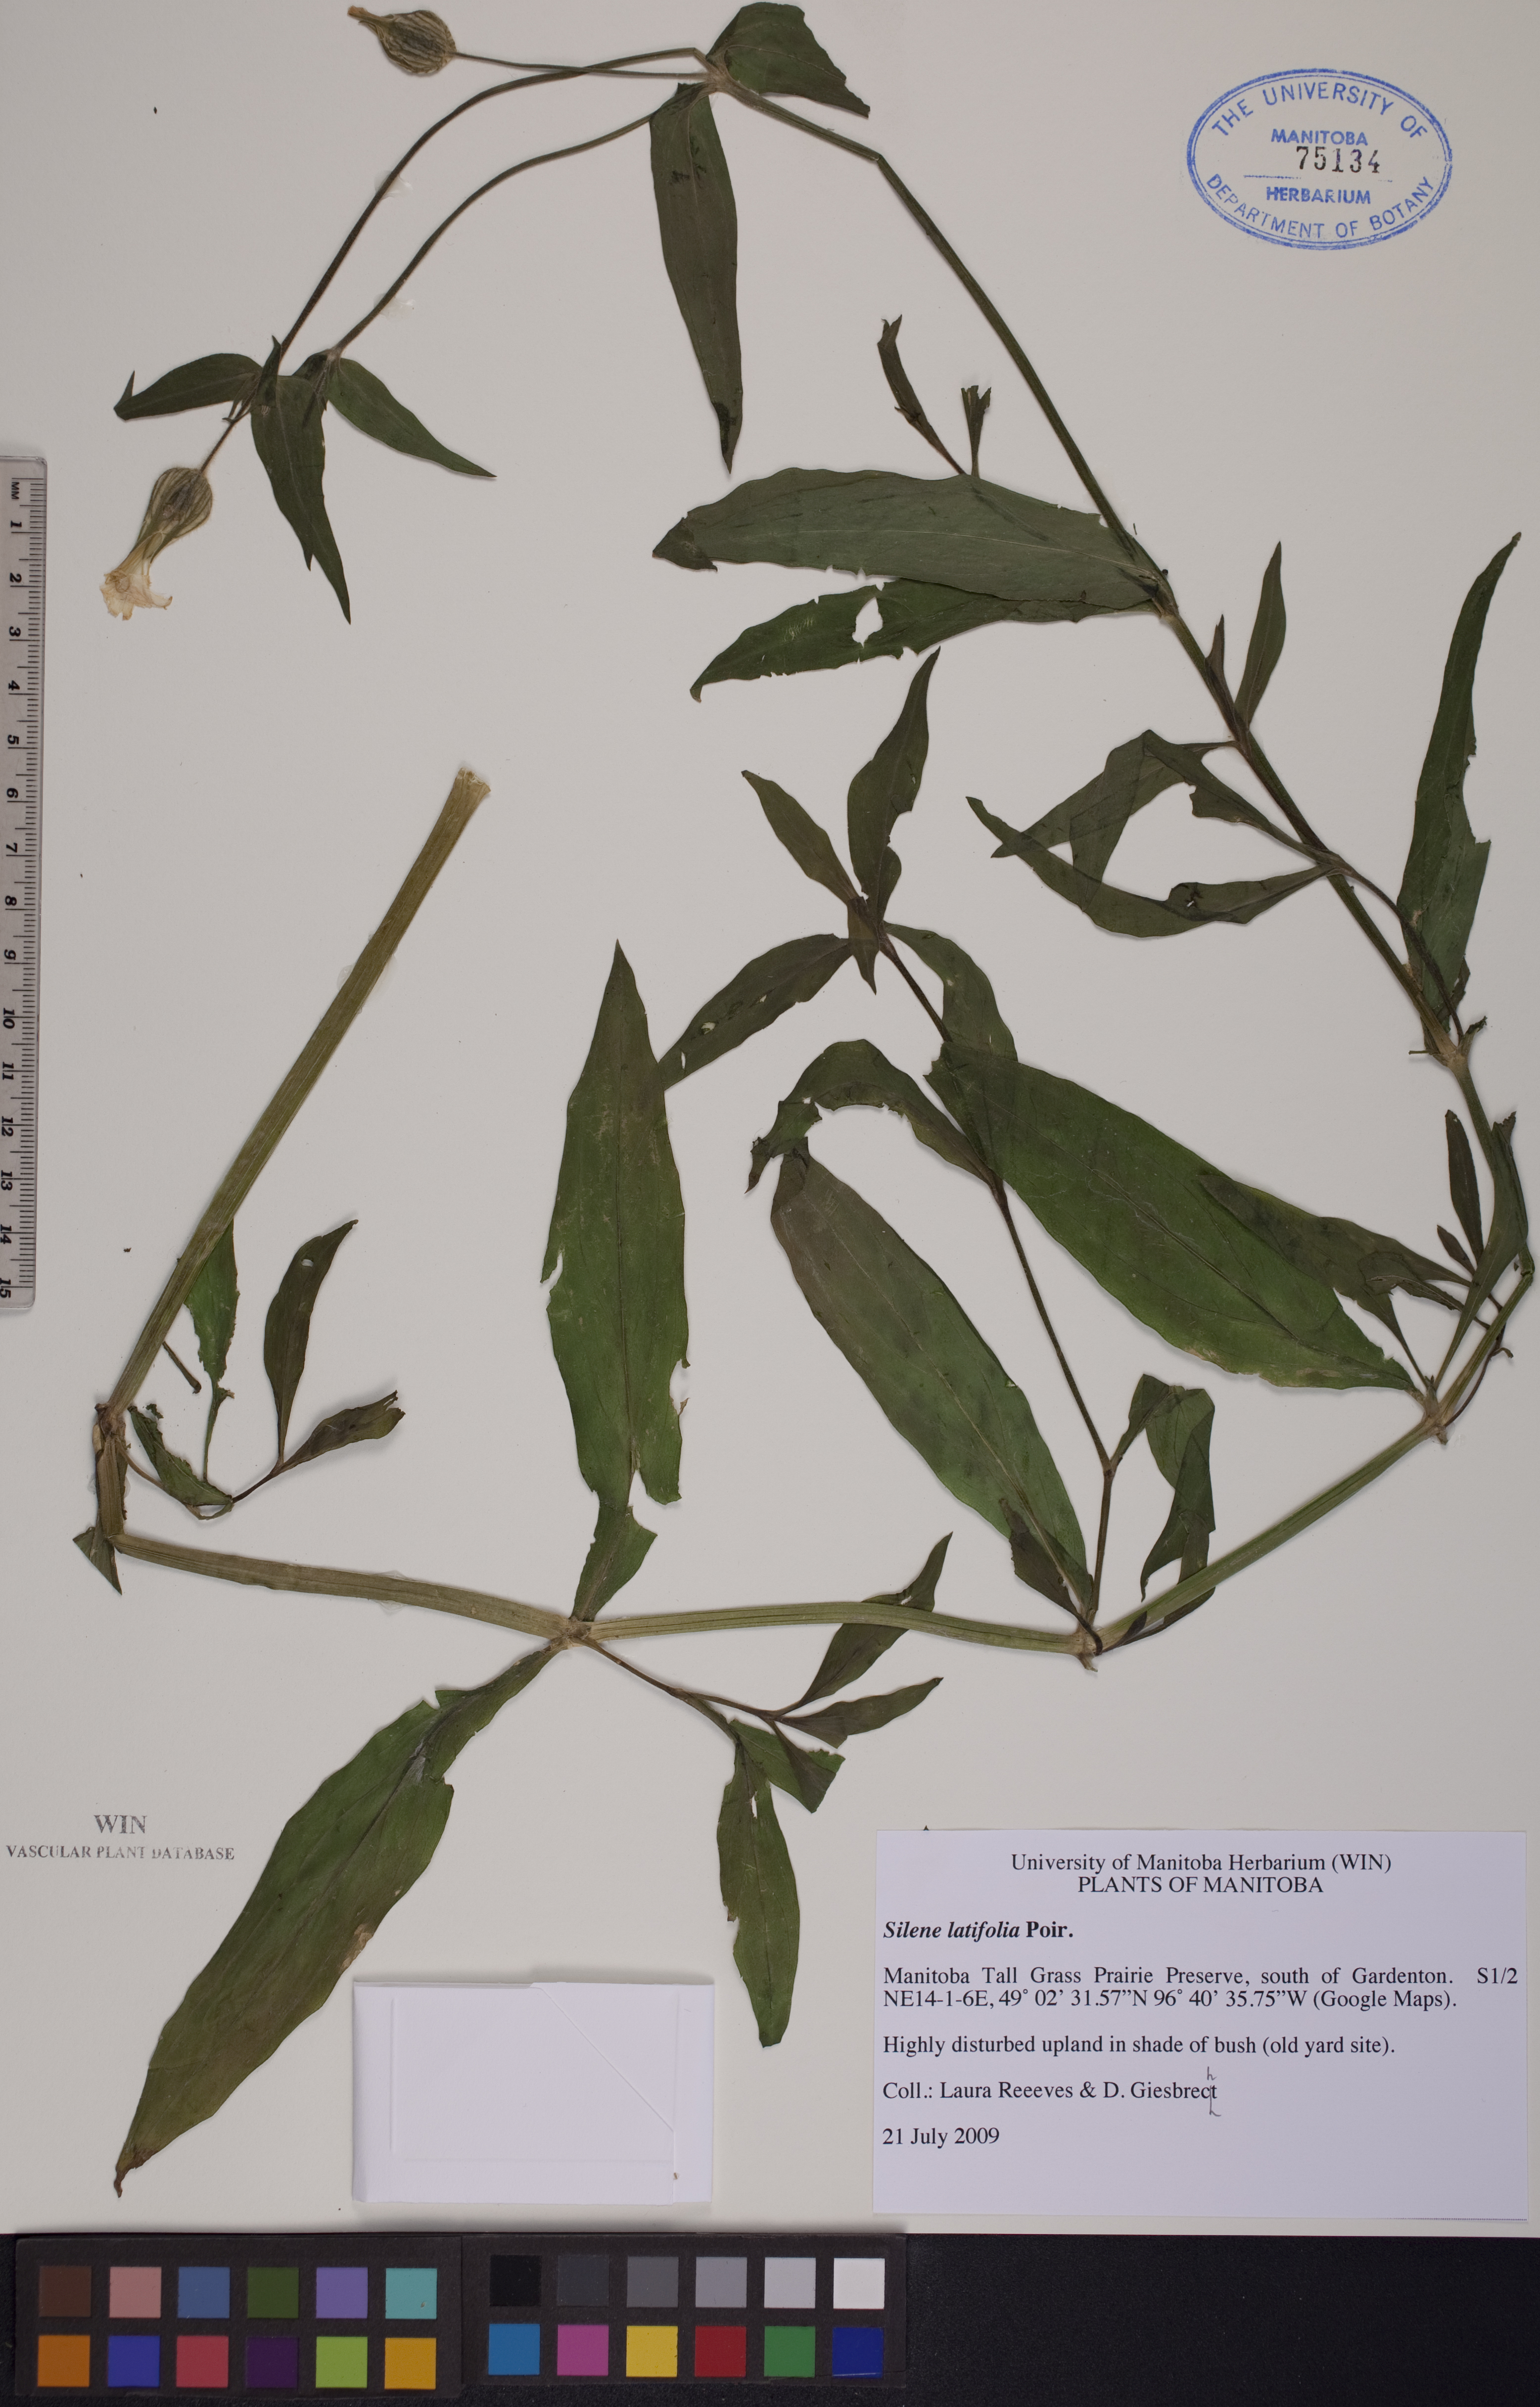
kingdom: Plantae
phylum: Tracheophyta
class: Magnoliopsida
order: Caryophyllales
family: Caryophyllaceae
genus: Silene
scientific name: Silene latifolia
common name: White campion
